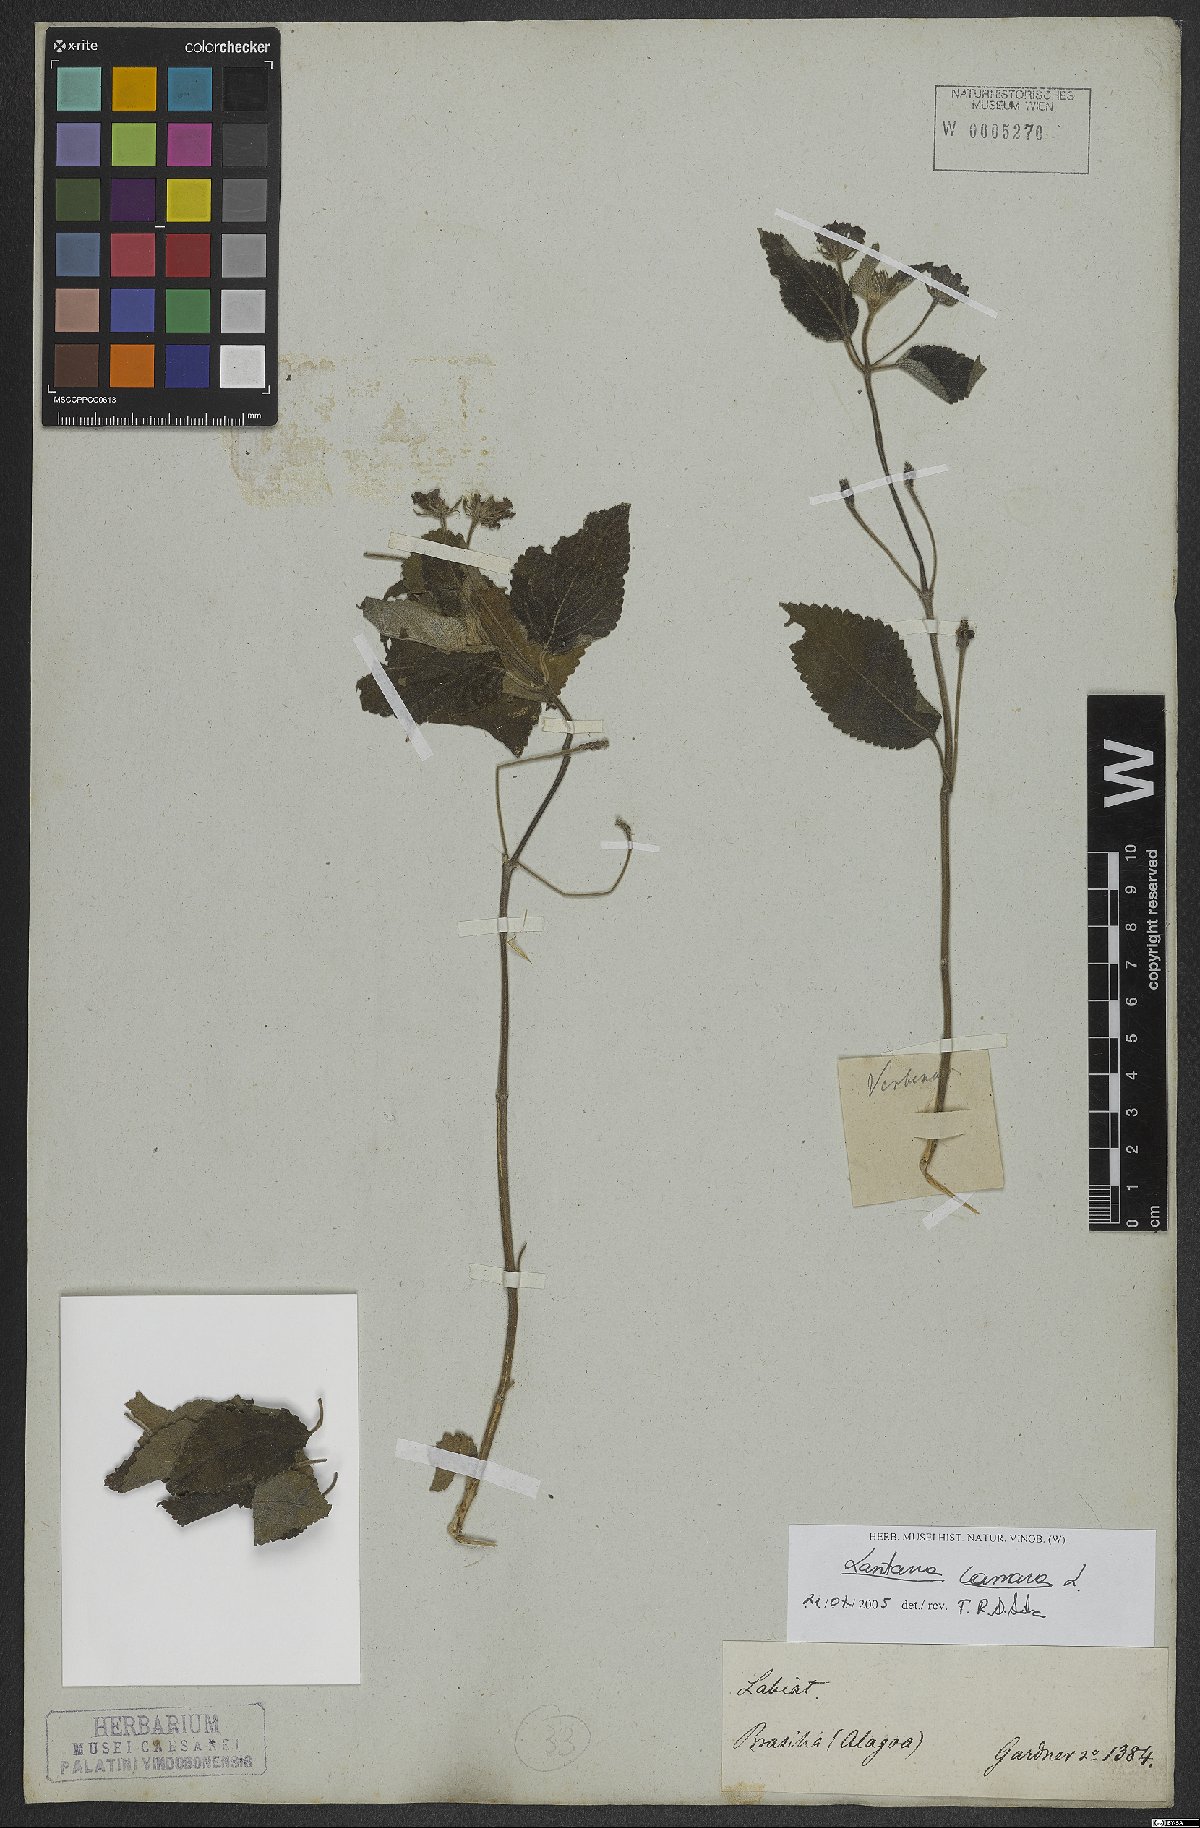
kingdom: Plantae
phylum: Tracheophyta
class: Magnoliopsida
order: Lamiales
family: Verbenaceae
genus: Lantana
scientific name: Lantana camara
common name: Lantana
